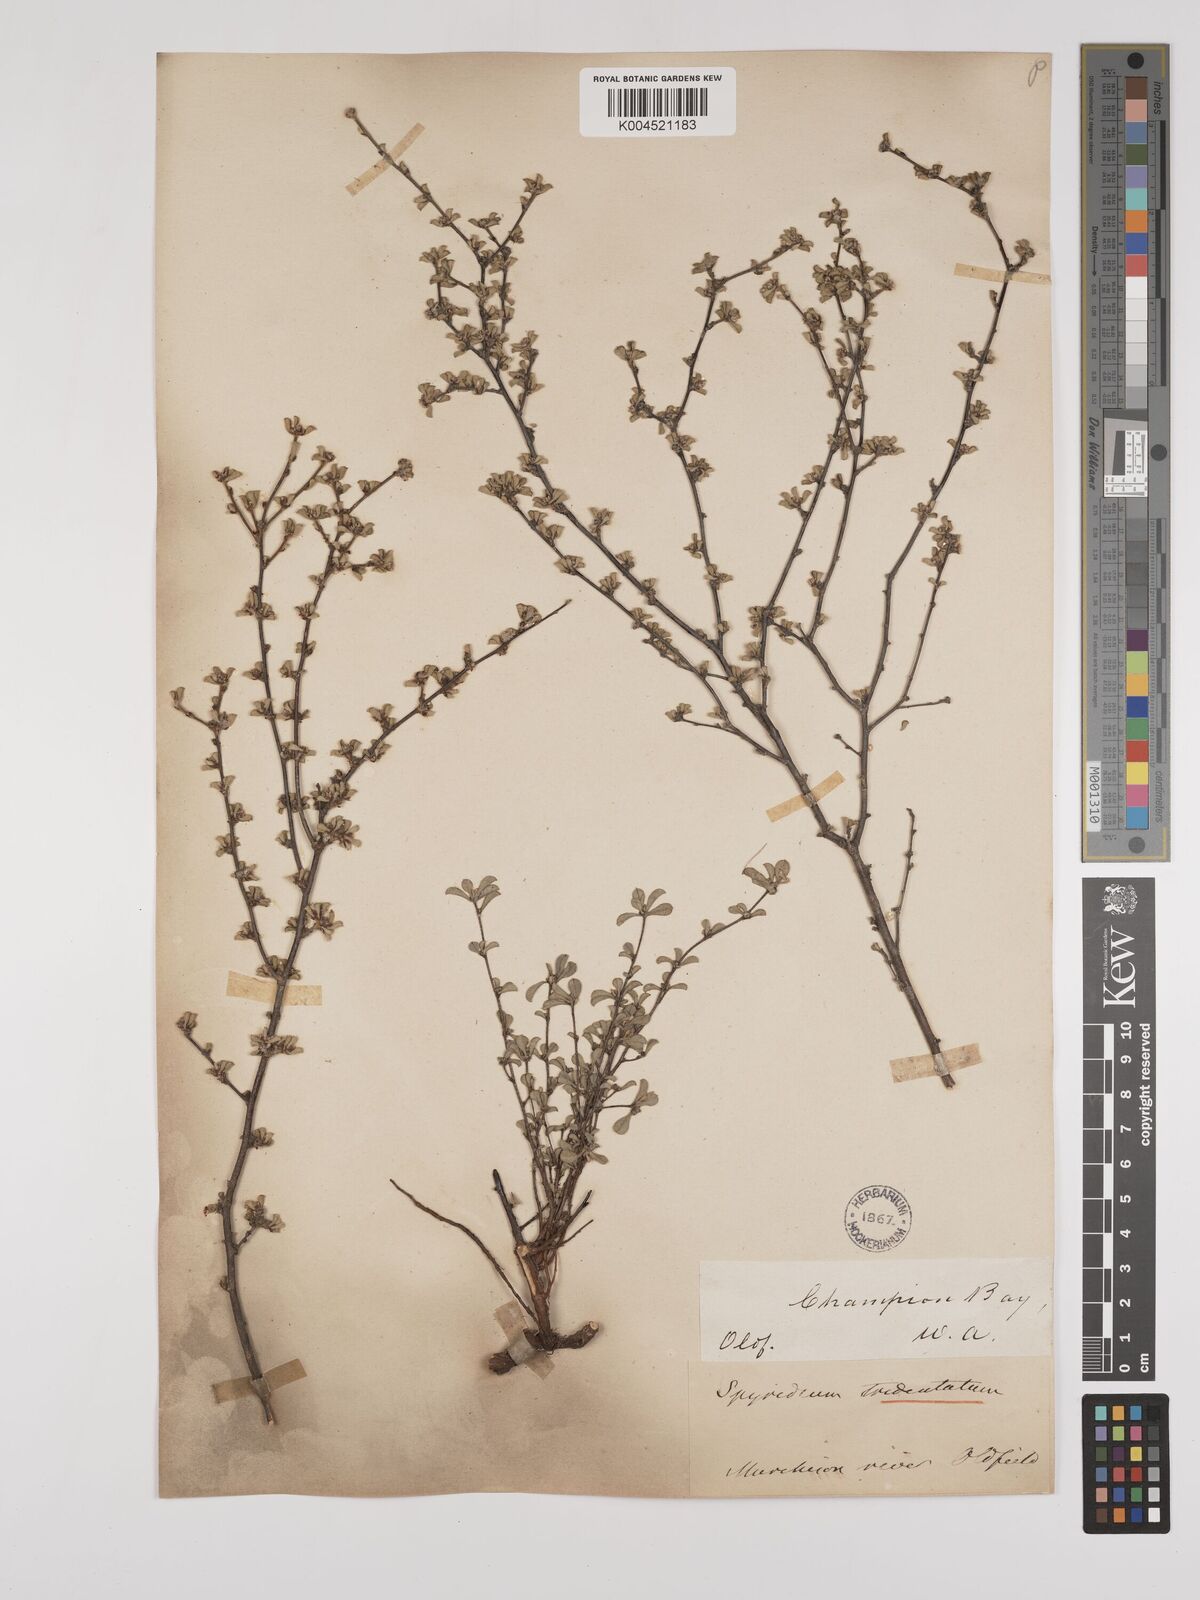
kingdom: Plantae
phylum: Tracheophyta
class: Magnoliopsida
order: Rosales
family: Rhamnaceae
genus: Stenanthemum
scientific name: Stenanthemum tridentatum
